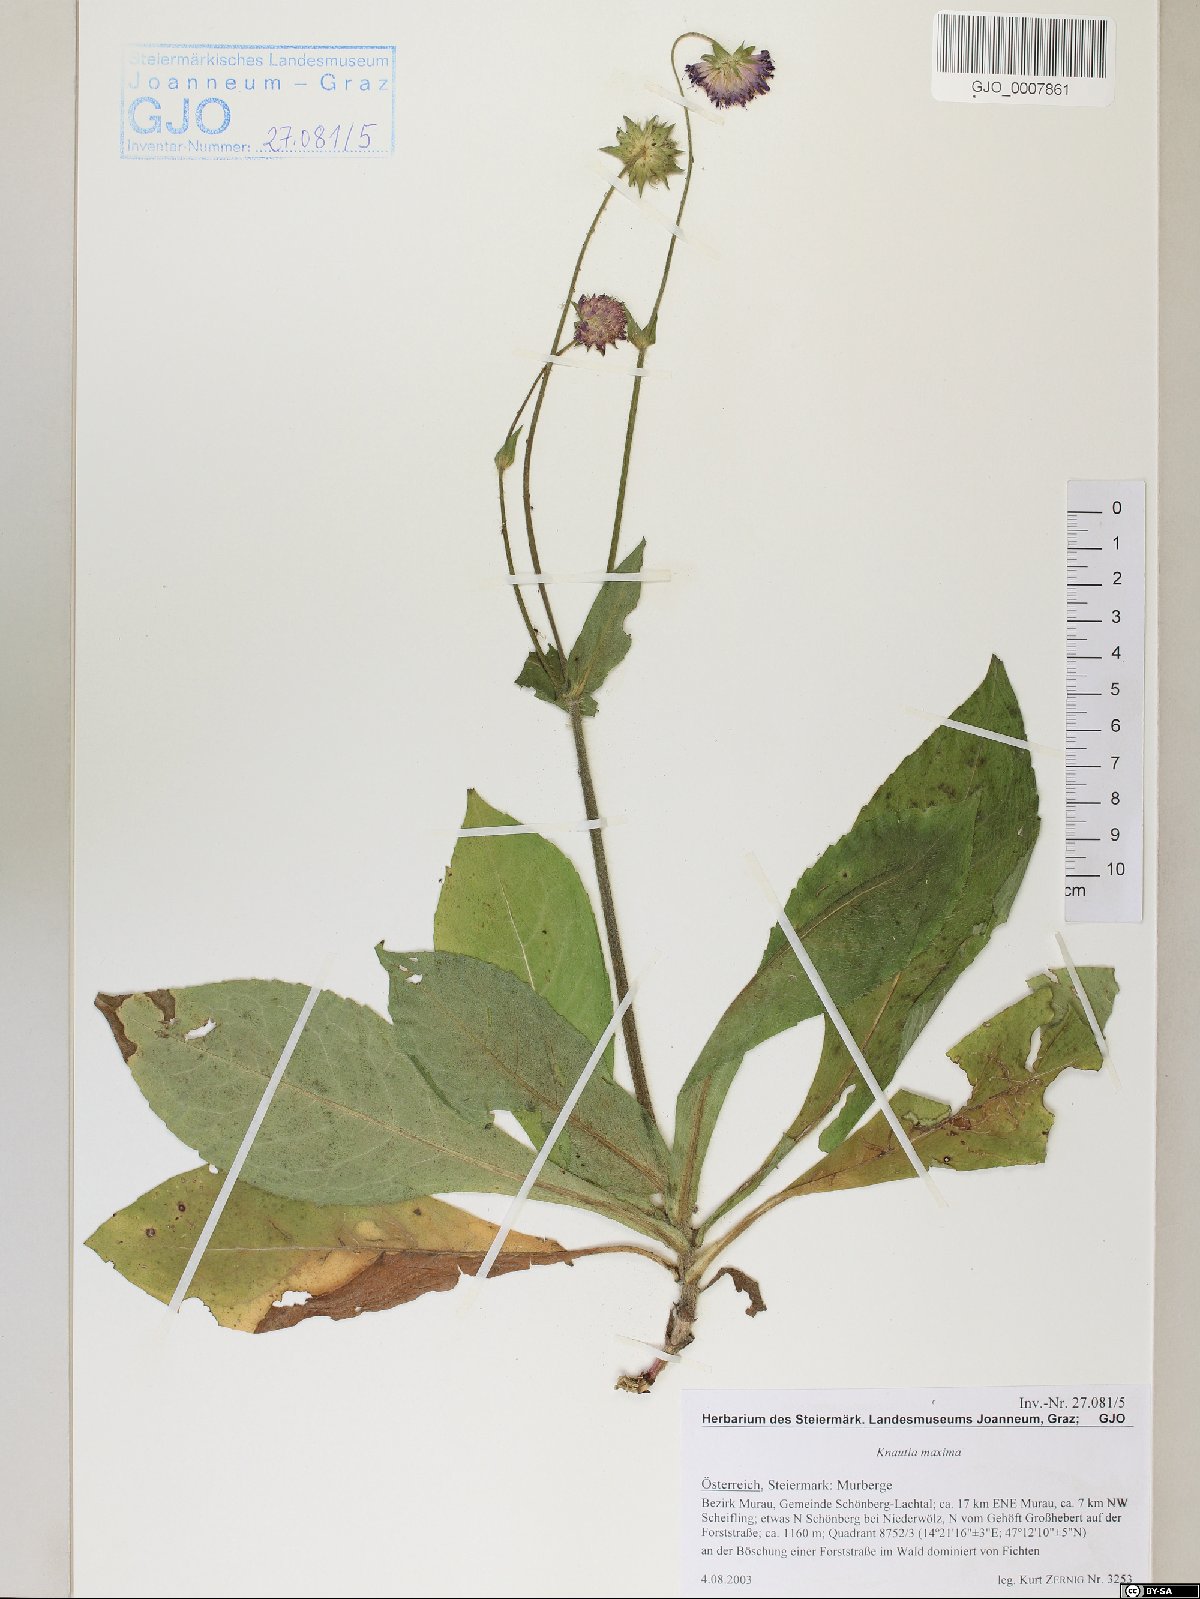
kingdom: Plantae
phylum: Tracheophyta
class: Magnoliopsida
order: Dipsacales
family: Caprifoliaceae
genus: Knautia
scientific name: Knautia dipsacifolia
